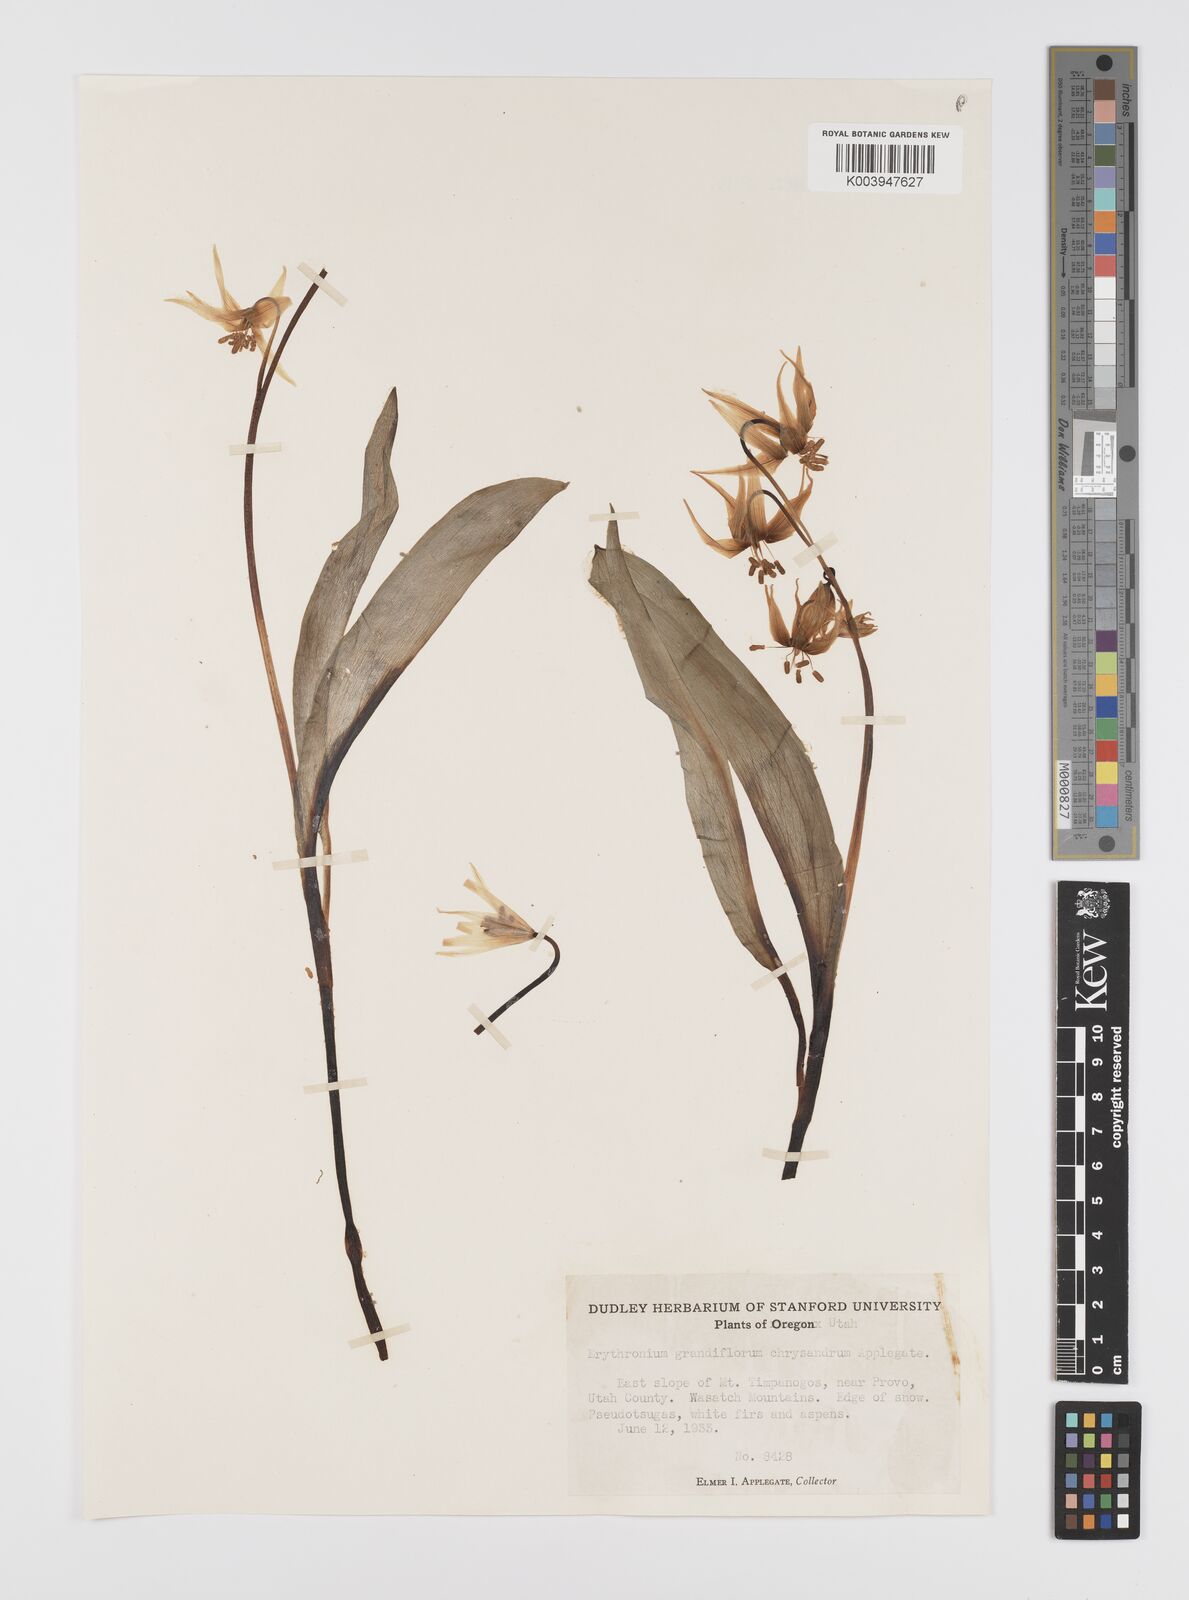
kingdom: Plantae
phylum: Tracheophyta
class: Liliopsida
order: Liliales
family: Liliaceae
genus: Erythronium
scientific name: Erythronium grandiflorum
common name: Avalanche-lily
